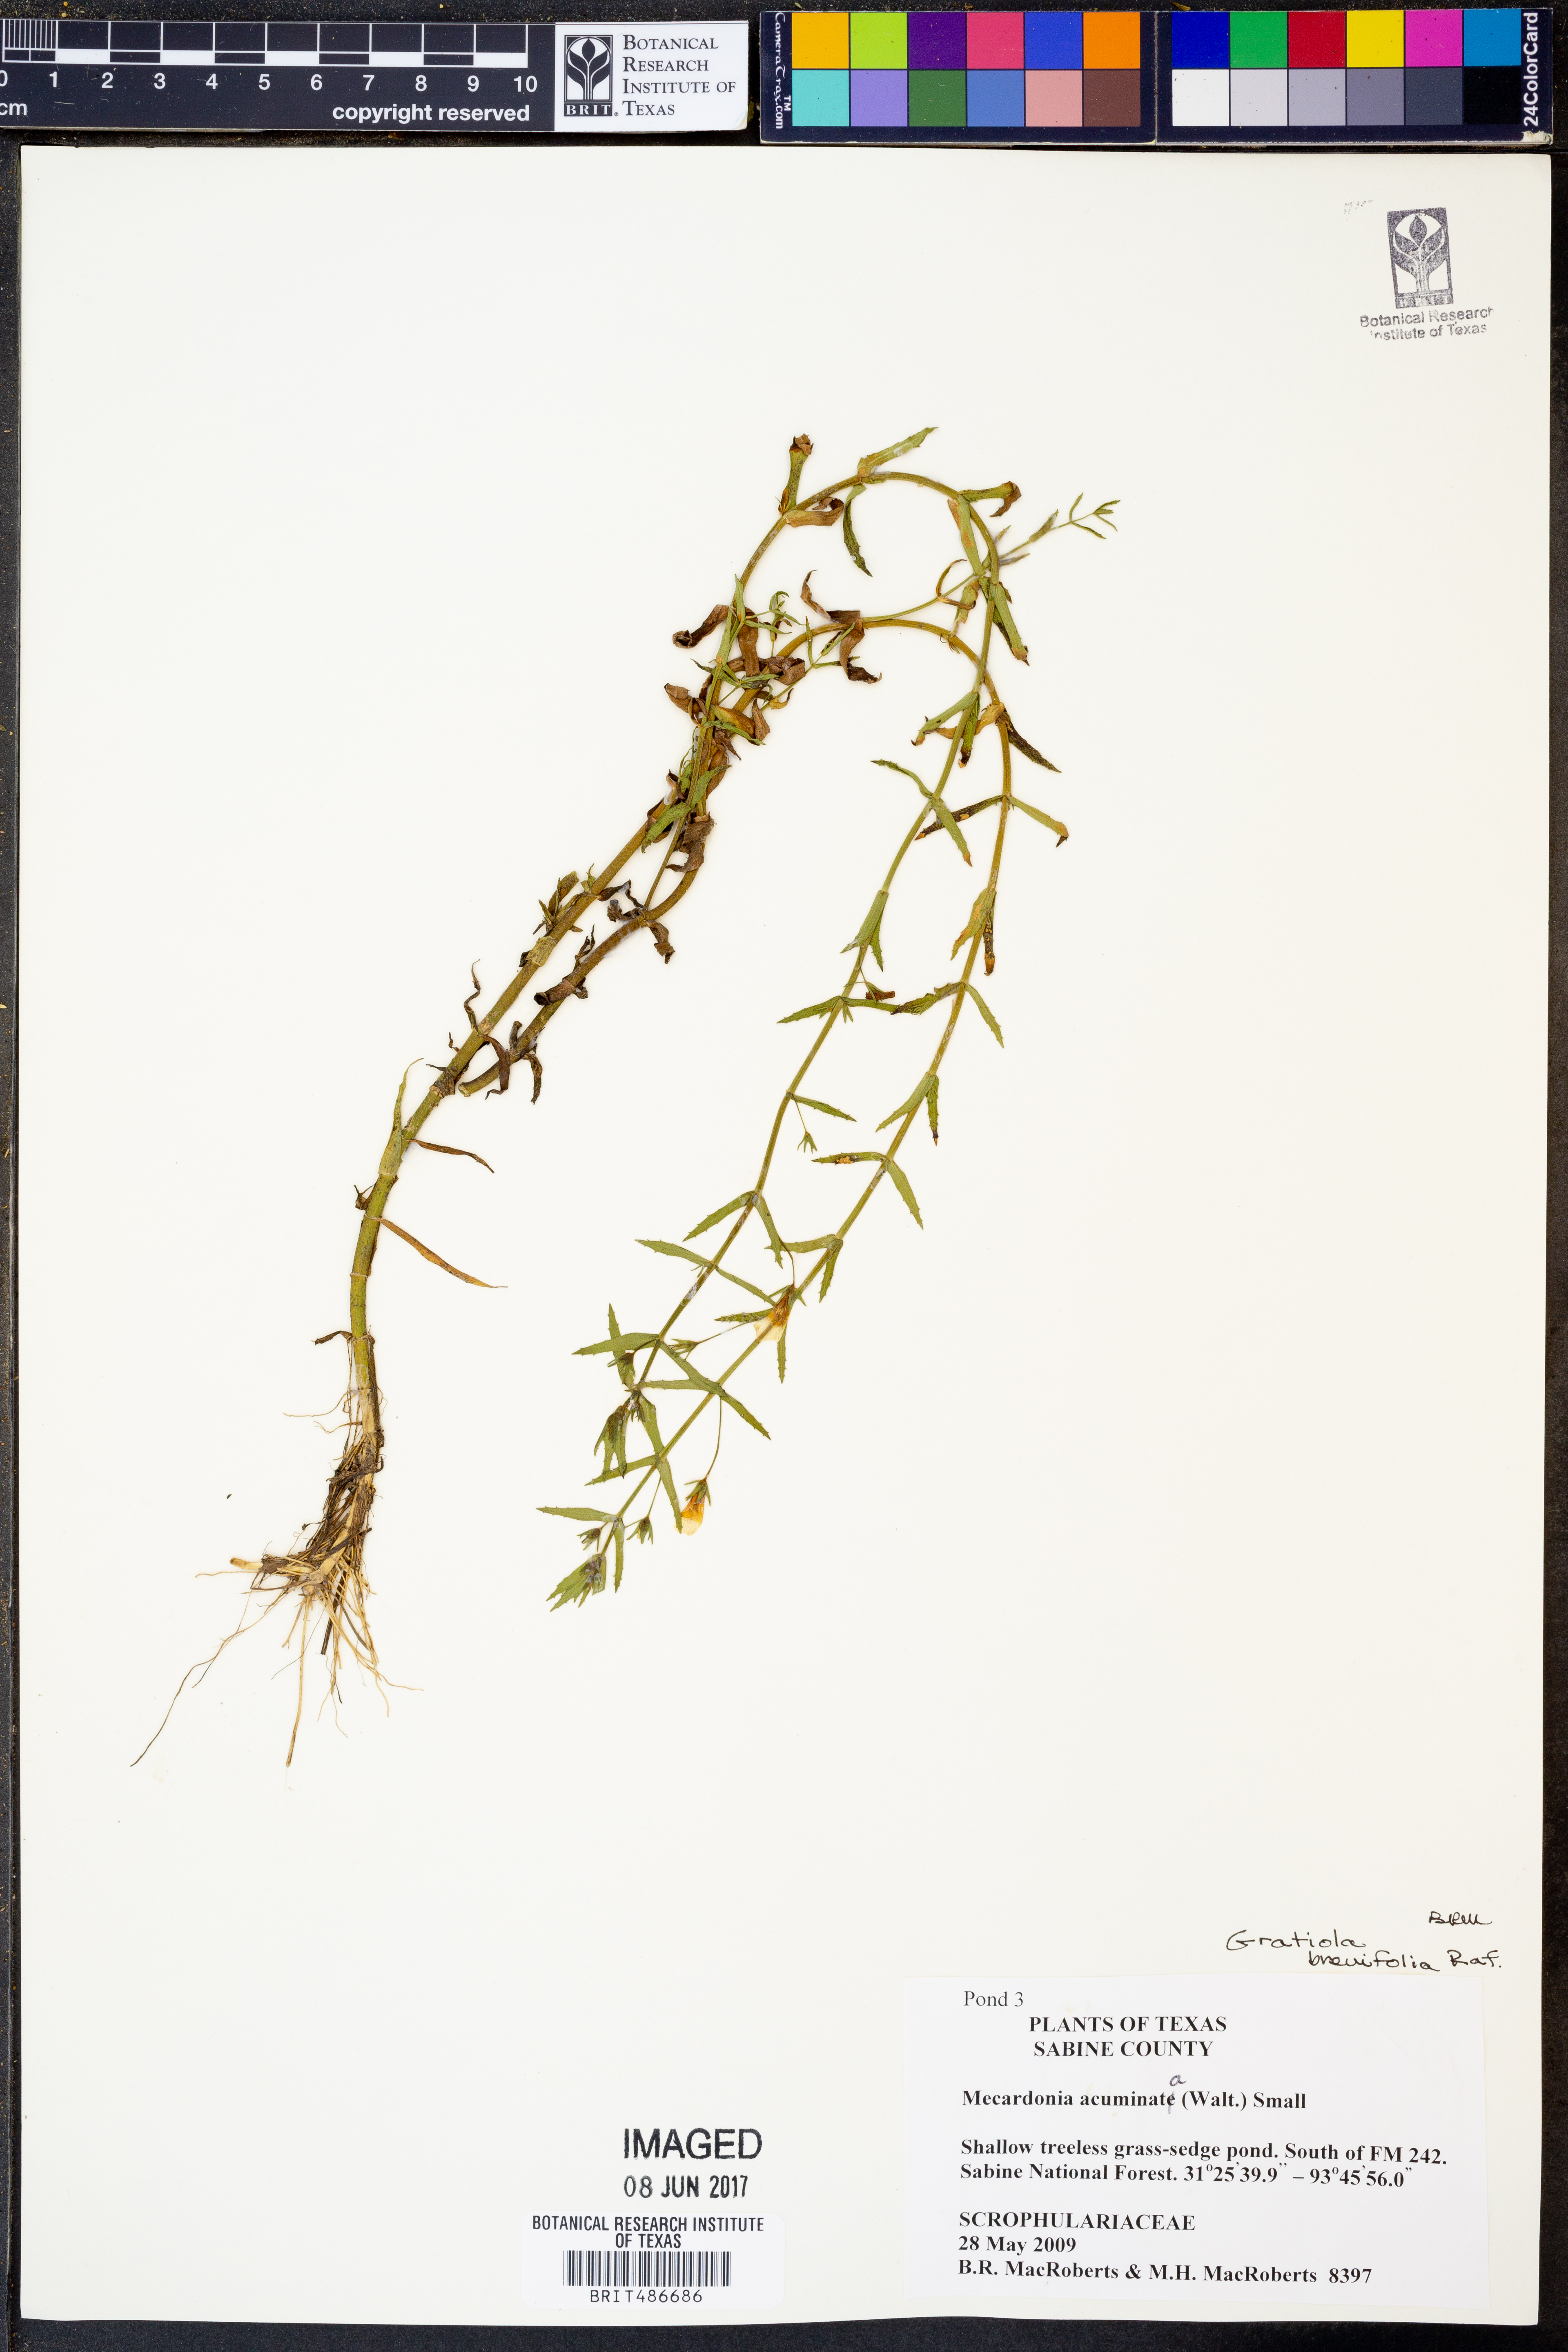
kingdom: Plantae
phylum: Tracheophyta
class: Magnoliopsida
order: Lamiales
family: Plantaginaceae
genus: Mecardonia
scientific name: Mecardonia acuminata
